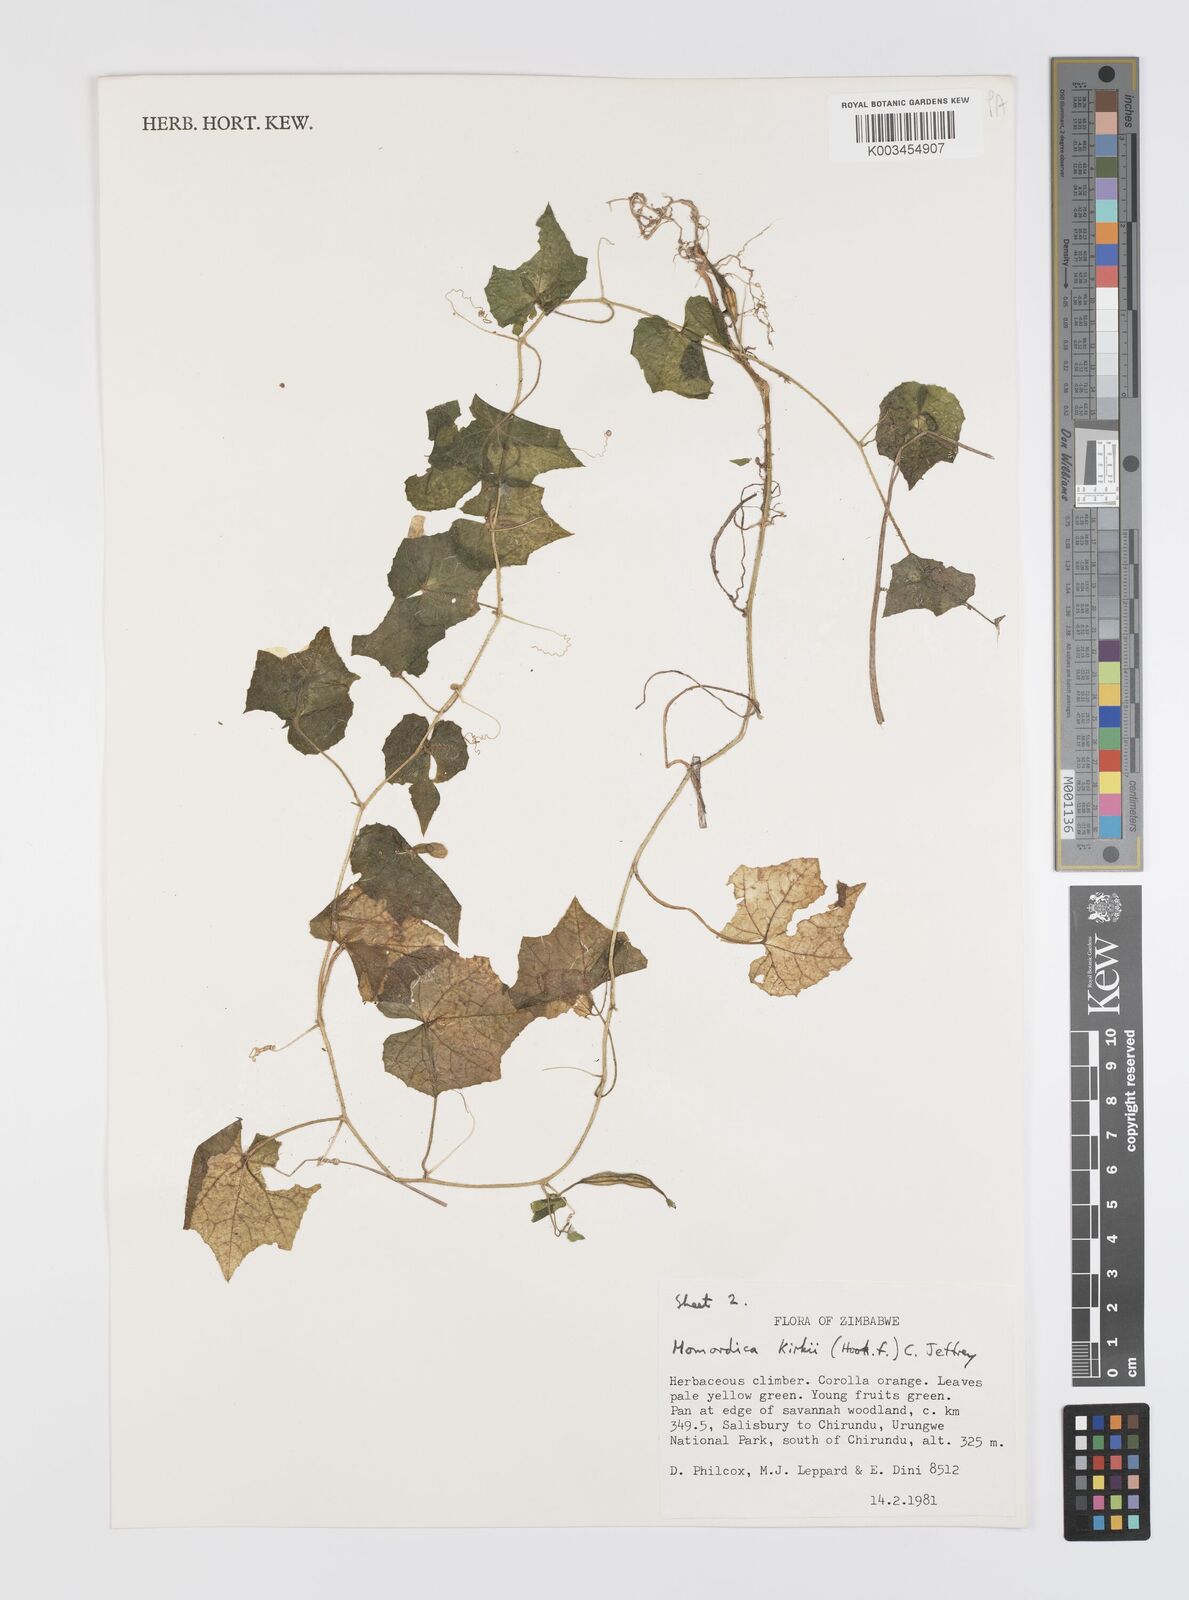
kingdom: Plantae
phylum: Tracheophyta
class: Magnoliopsida
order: Cucurbitales
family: Cucurbitaceae
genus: Momordica
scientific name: Momordica kirkii
